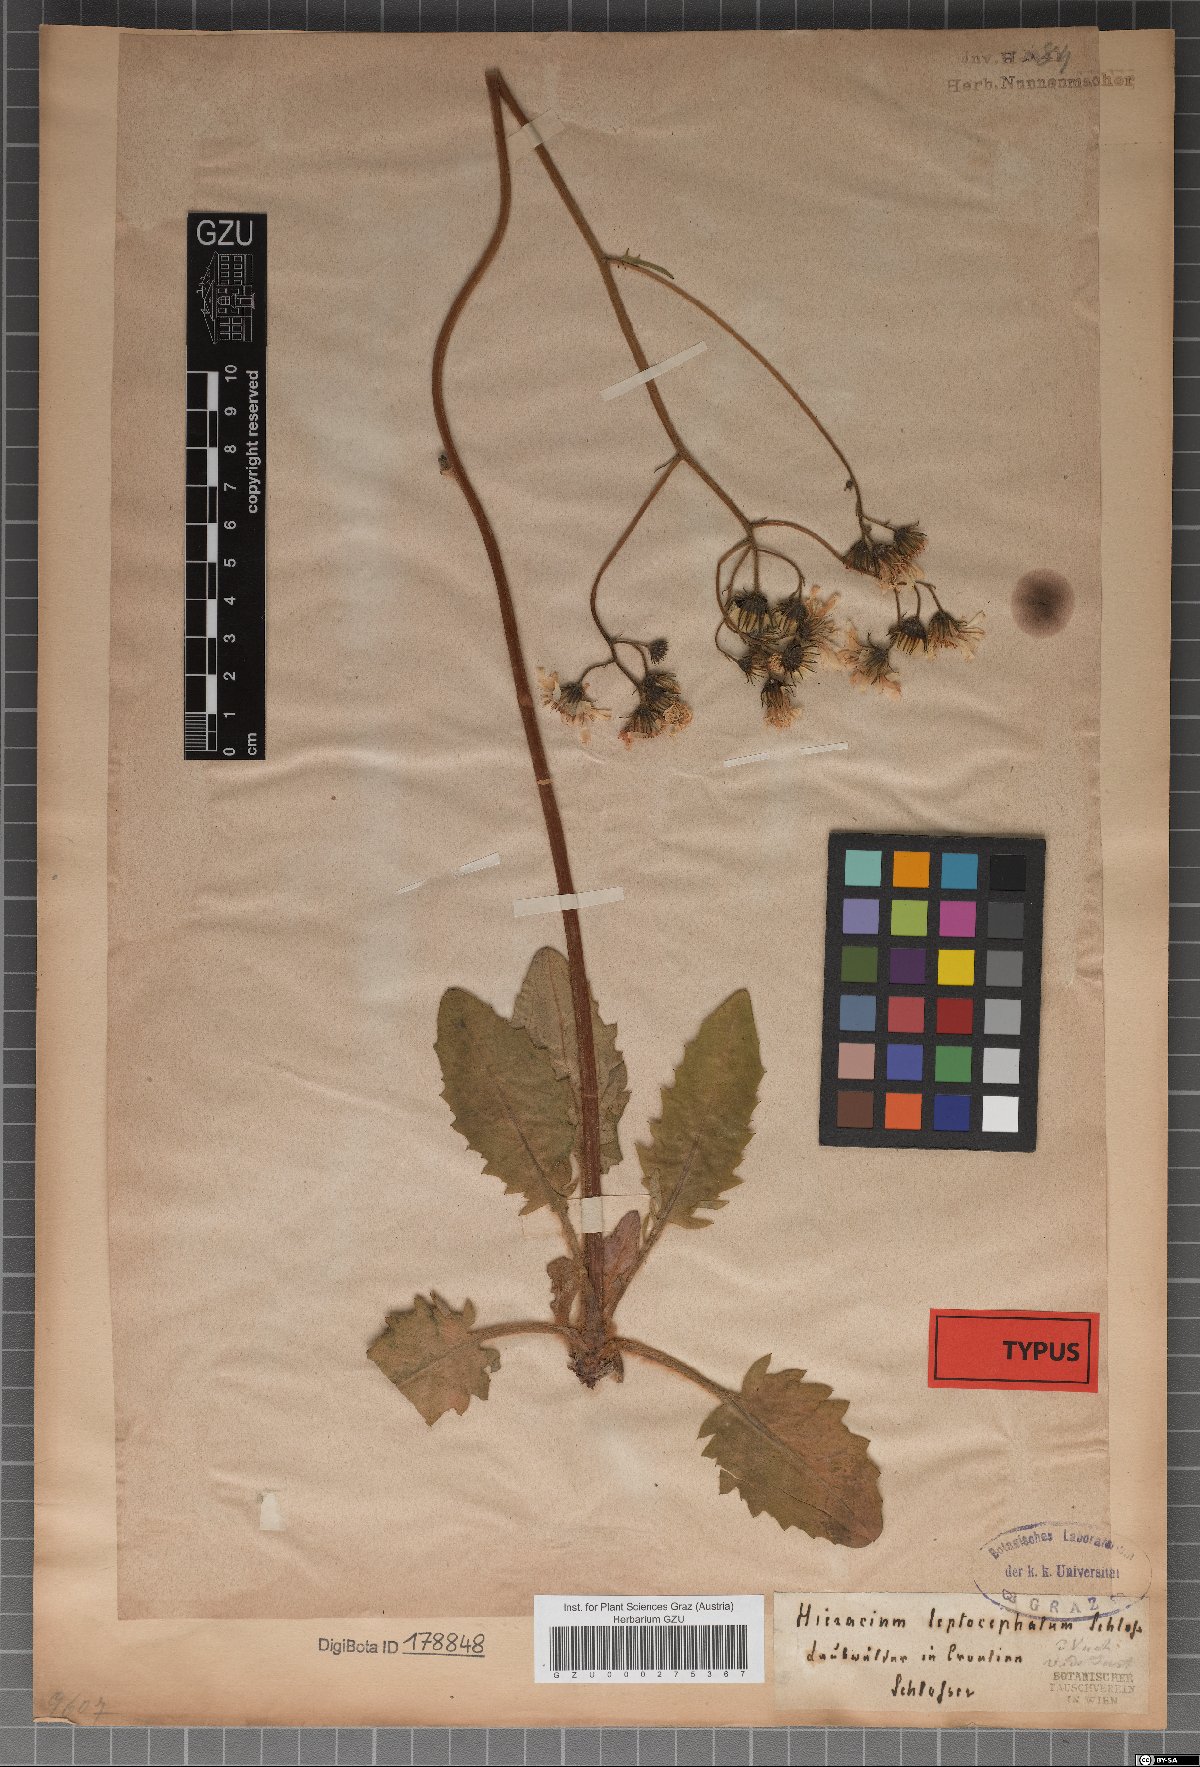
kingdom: Plantae
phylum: Tracheophyta
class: Magnoliopsida
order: Asterales
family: Asteraceae
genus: Hieracium
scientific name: Hieracium leptocephalum
